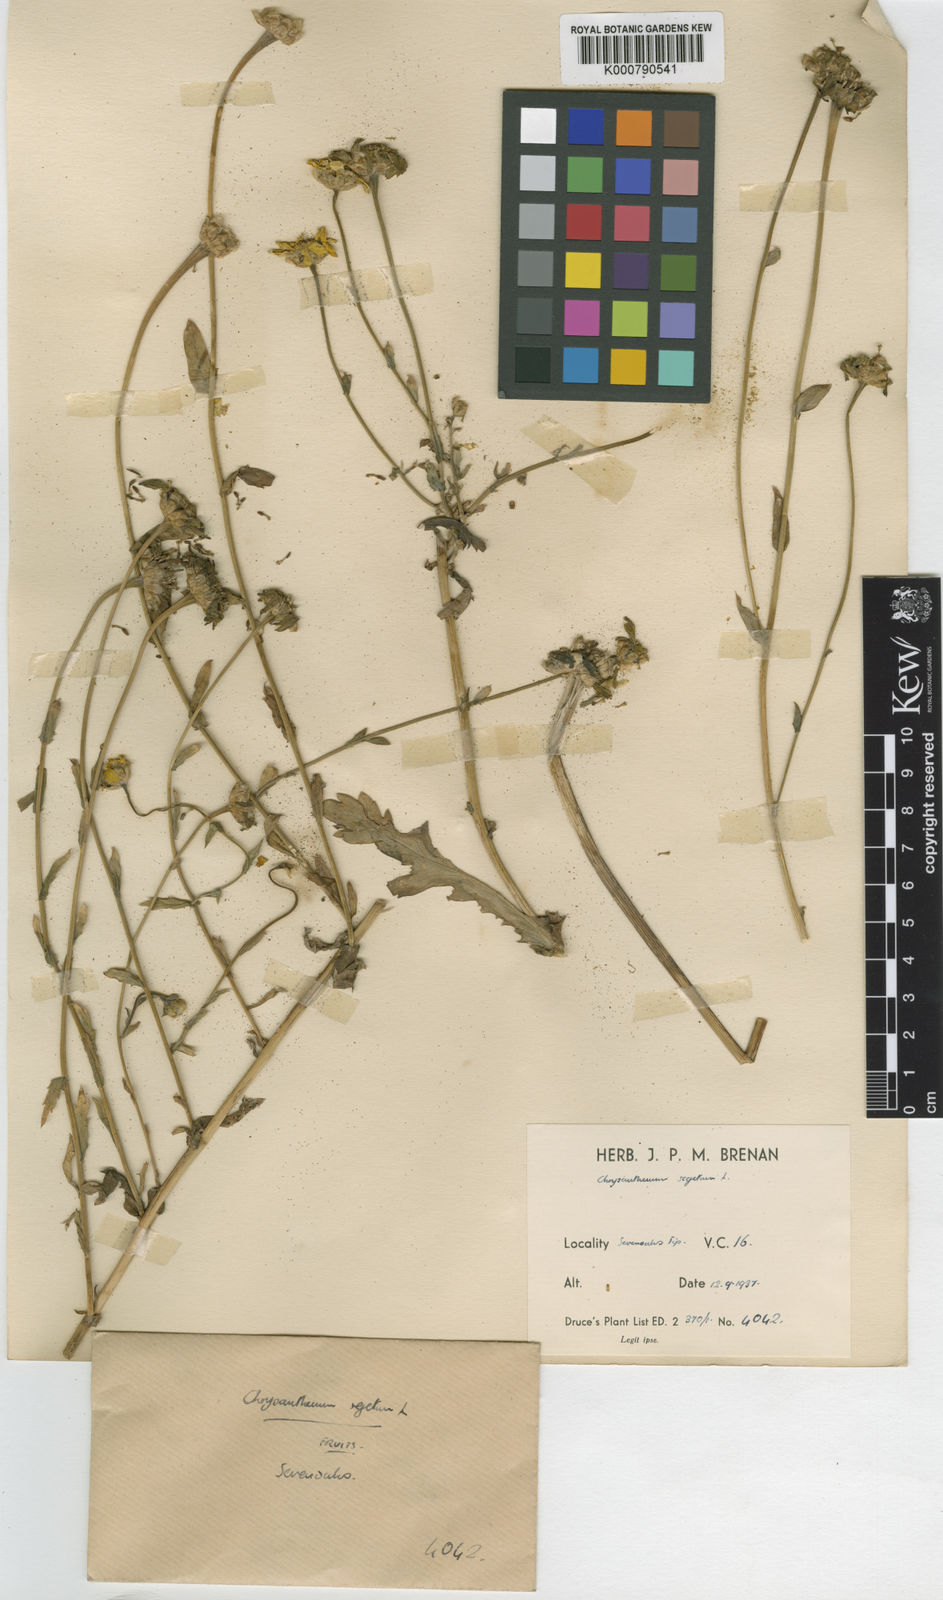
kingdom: Plantae
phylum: Tracheophyta
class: Magnoliopsida
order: Asterales
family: Asteraceae
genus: Glebionis
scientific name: Glebionis
